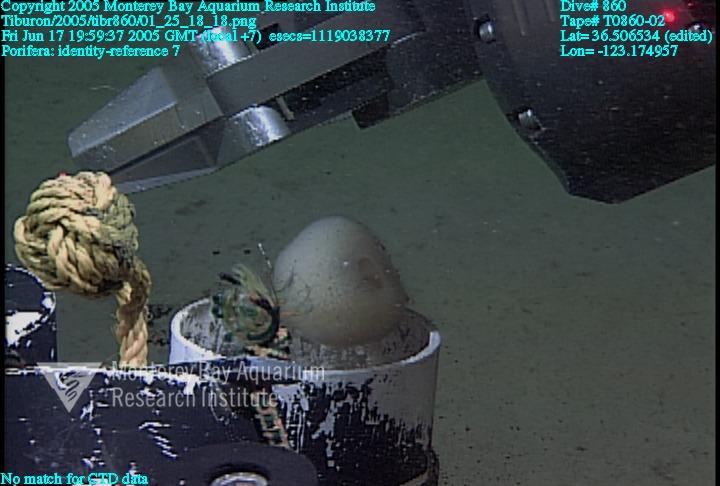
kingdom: Animalia
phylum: Porifera
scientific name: Porifera
